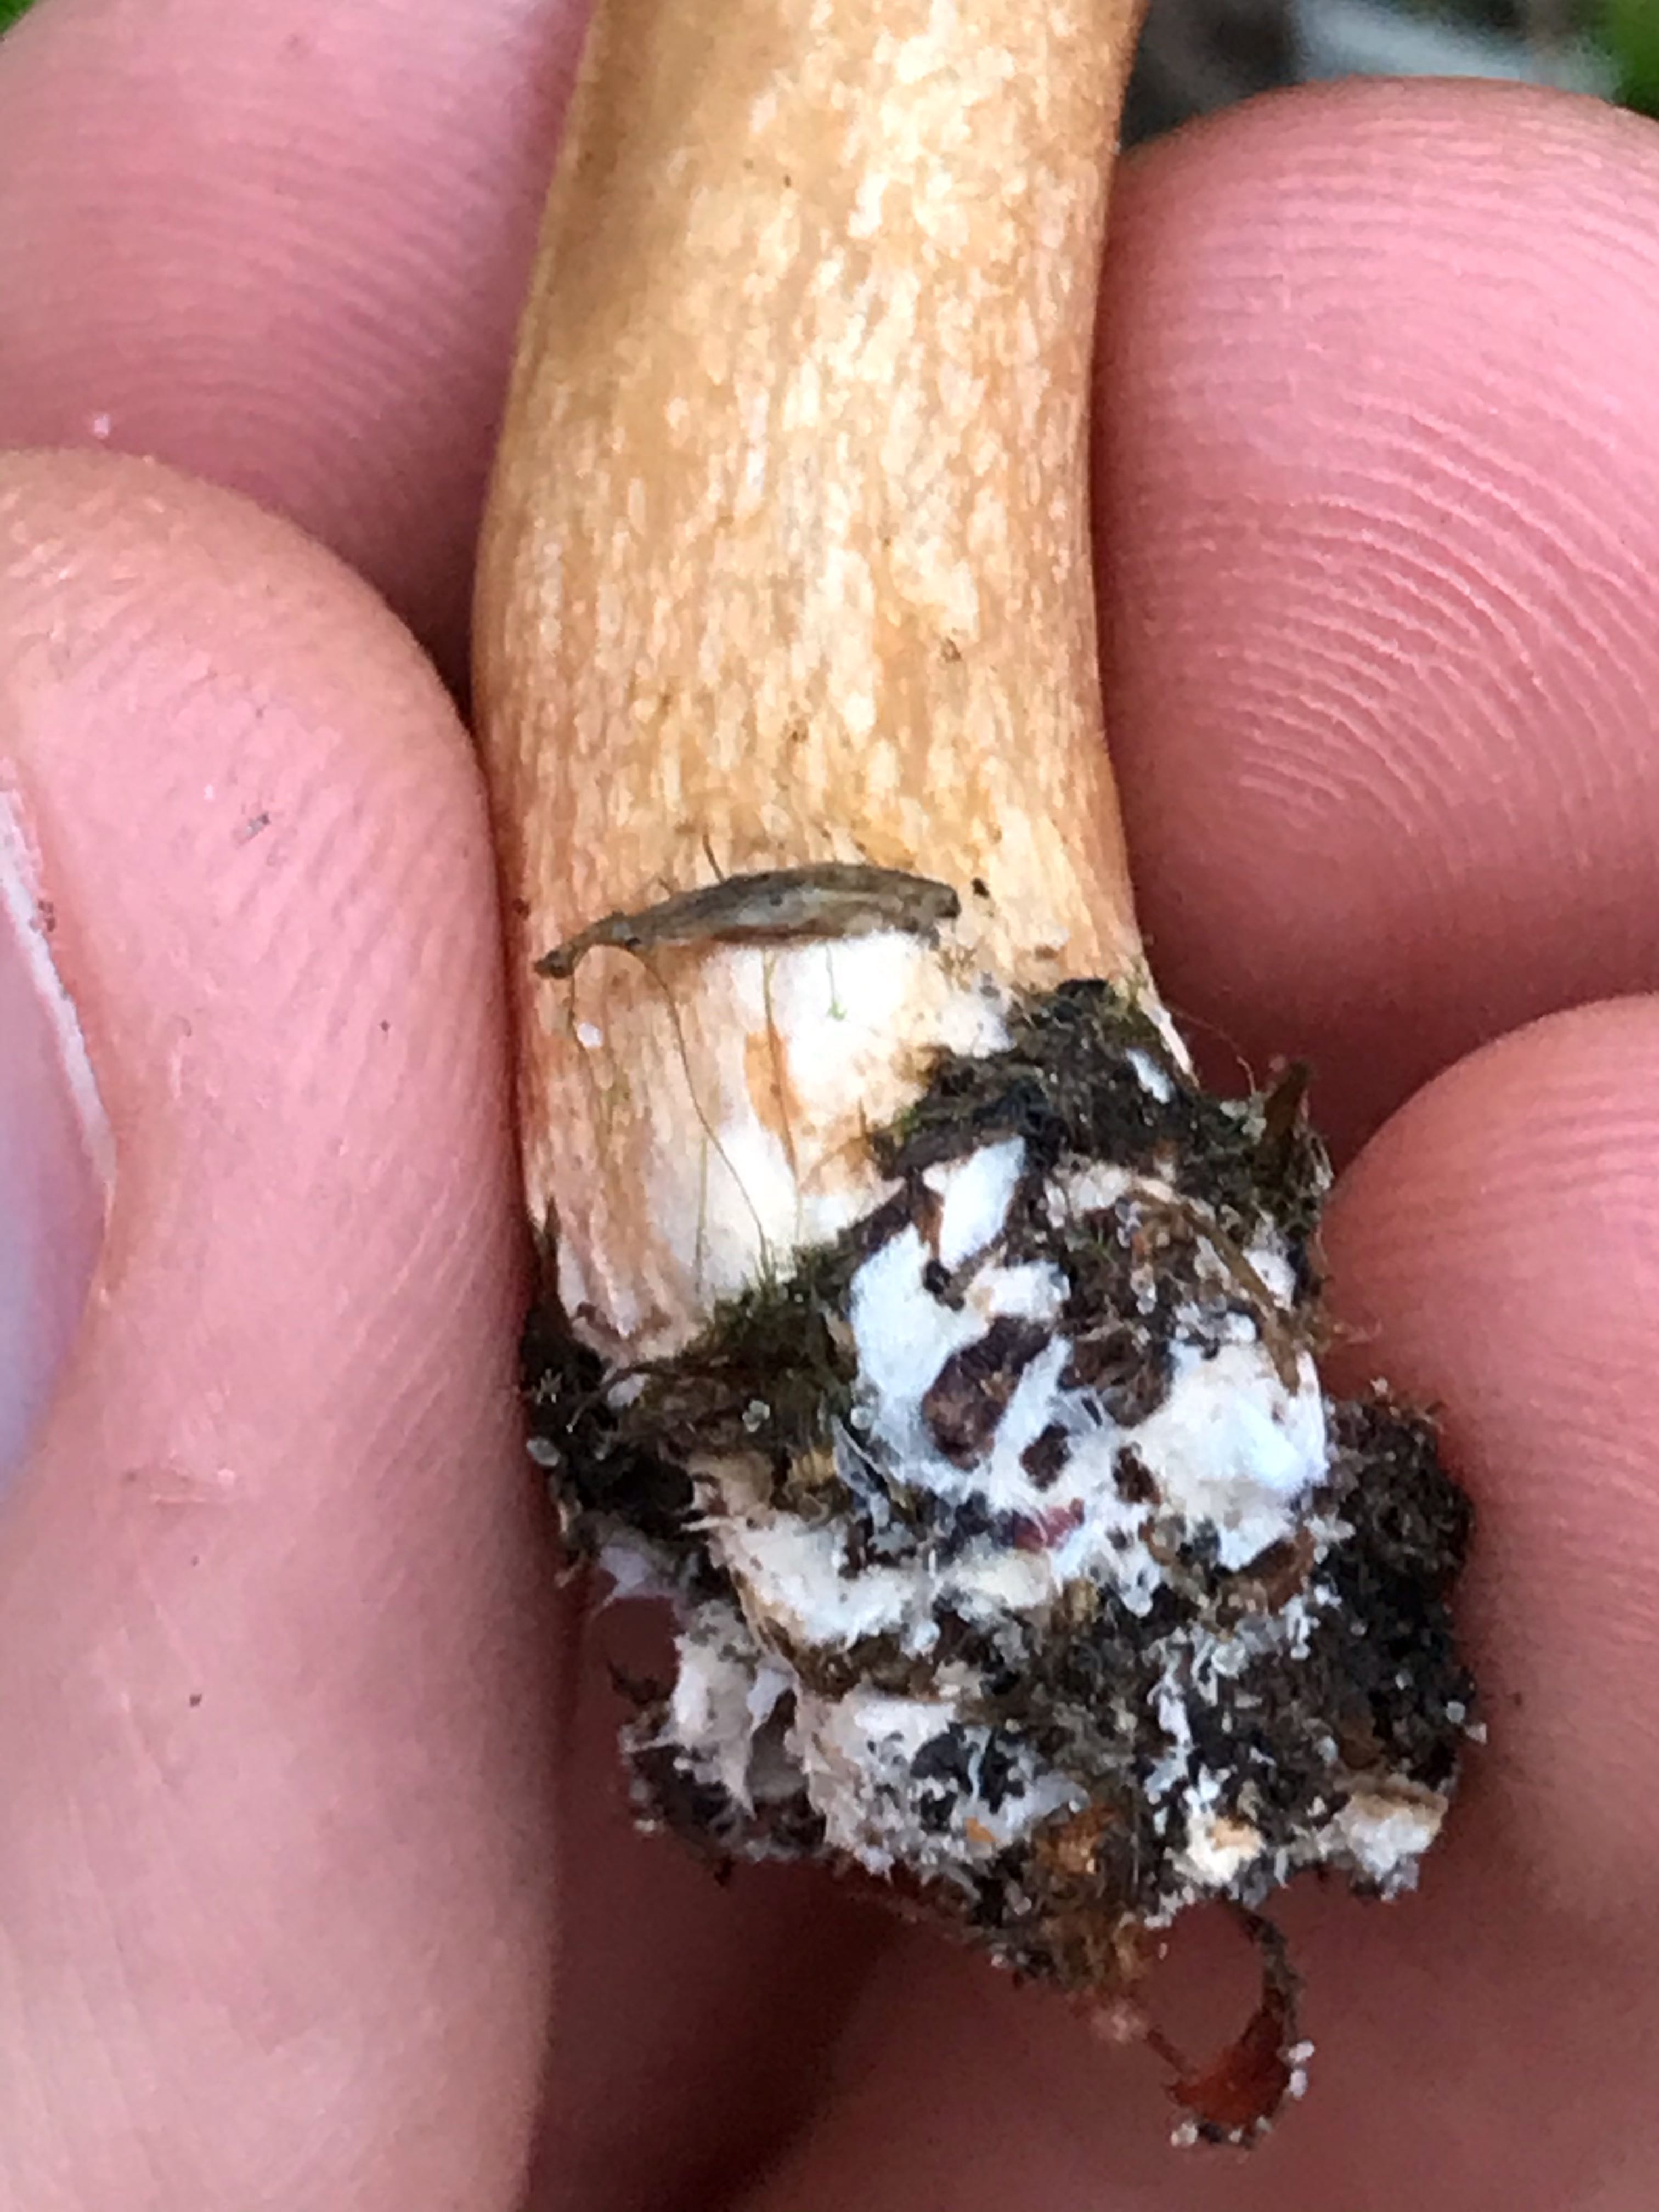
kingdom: Fungi
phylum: Basidiomycota
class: Agaricomycetes
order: Boletales
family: Suillaceae
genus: Suillus
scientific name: Suillus bovinus
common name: grovporet slimrørhat
